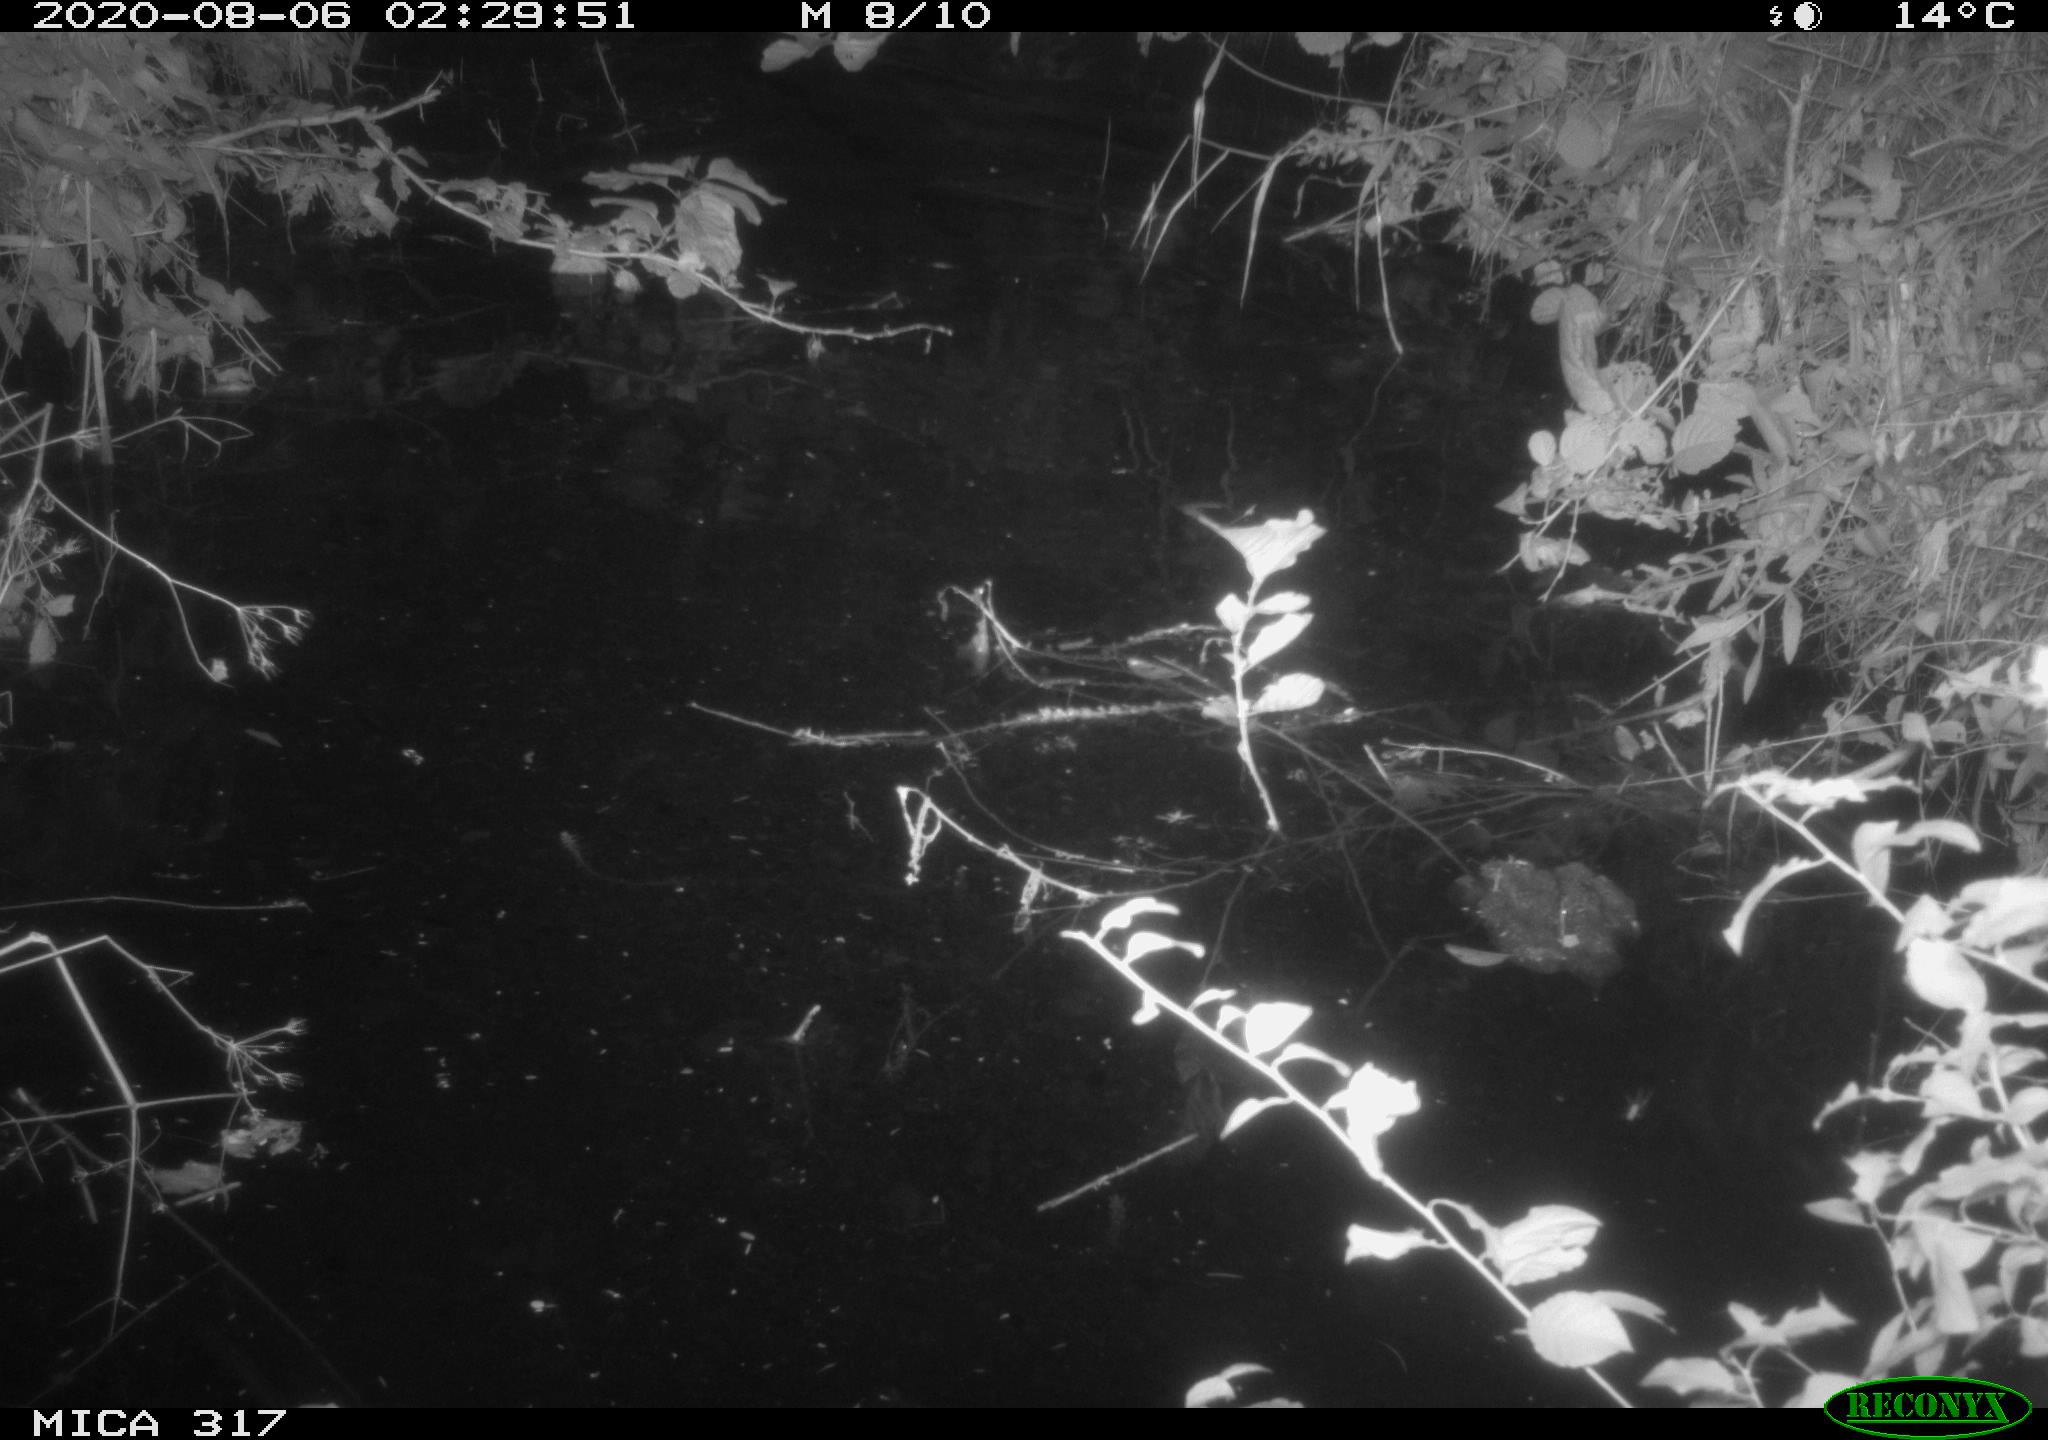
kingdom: Animalia
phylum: Chordata
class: Aves
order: Anseriformes
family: Anatidae
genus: Anas
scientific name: Anas platyrhynchos
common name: Mallard
